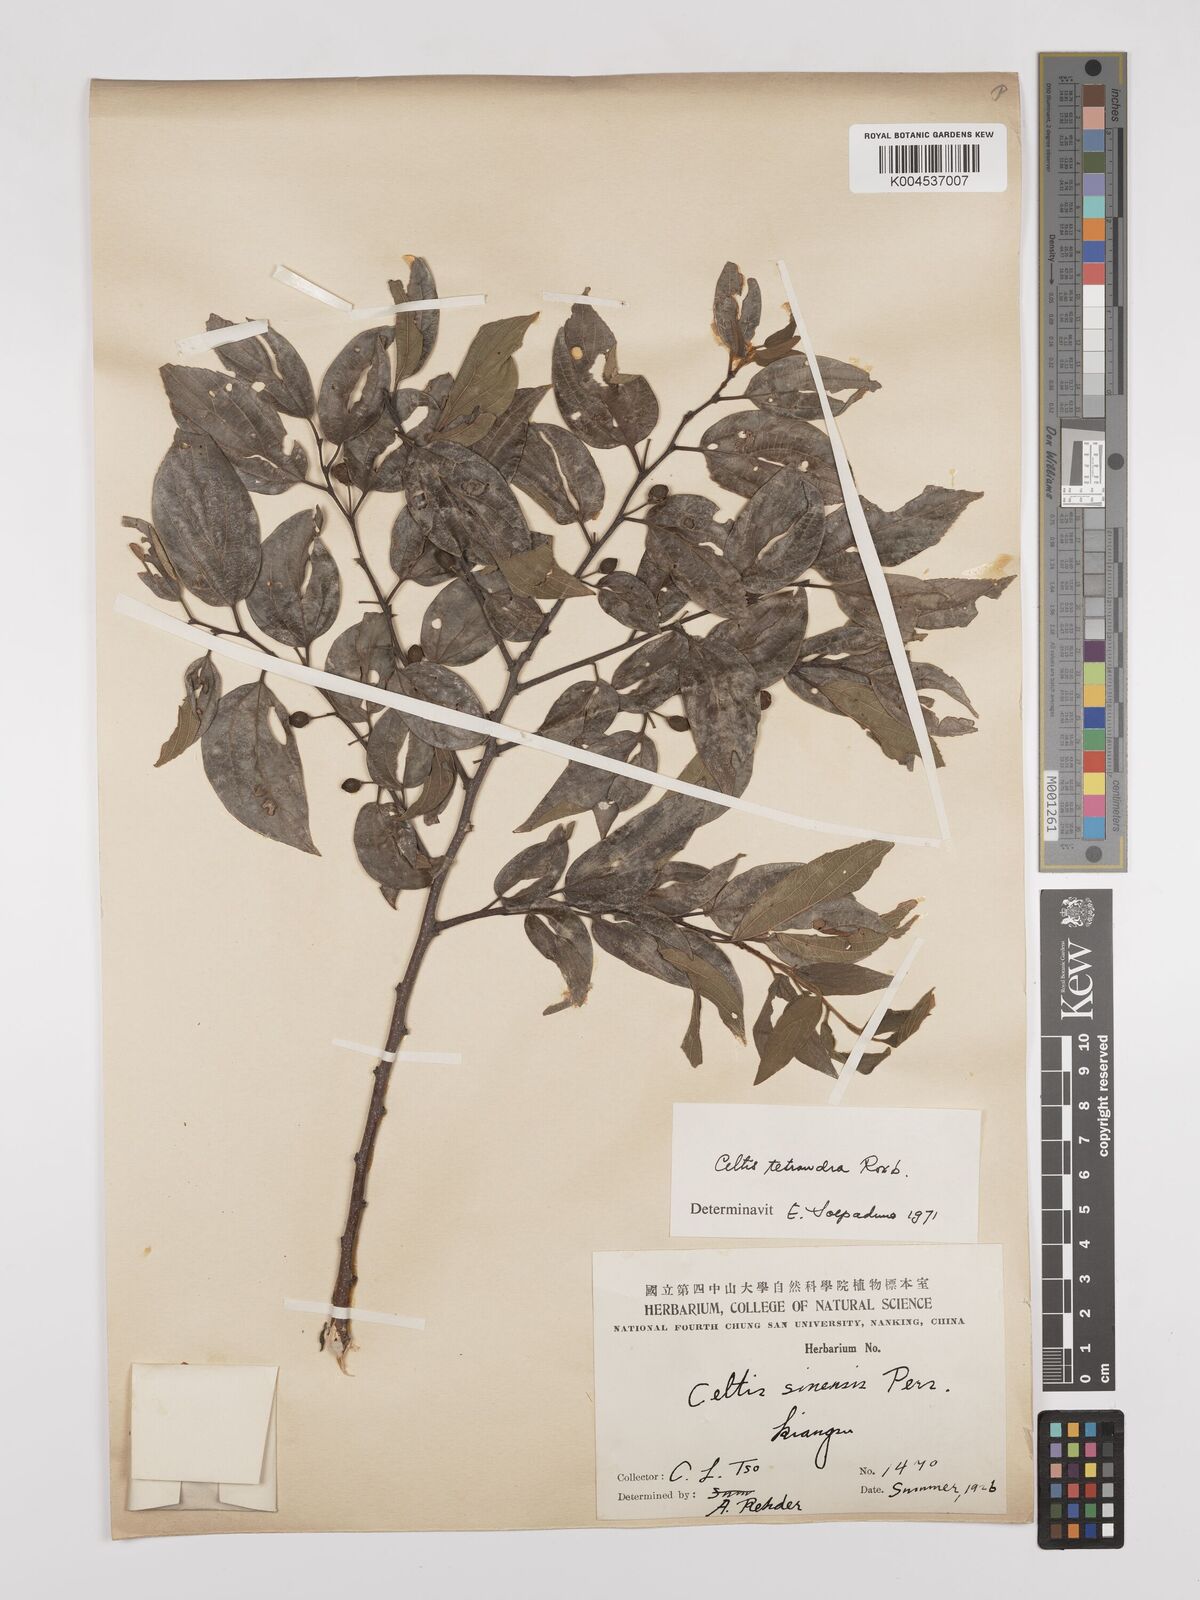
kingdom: Plantae
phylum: Tracheophyta
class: Magnoliopsida
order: Rosales
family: Cannabaceae
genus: Celtis
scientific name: Celtis tetrandra
